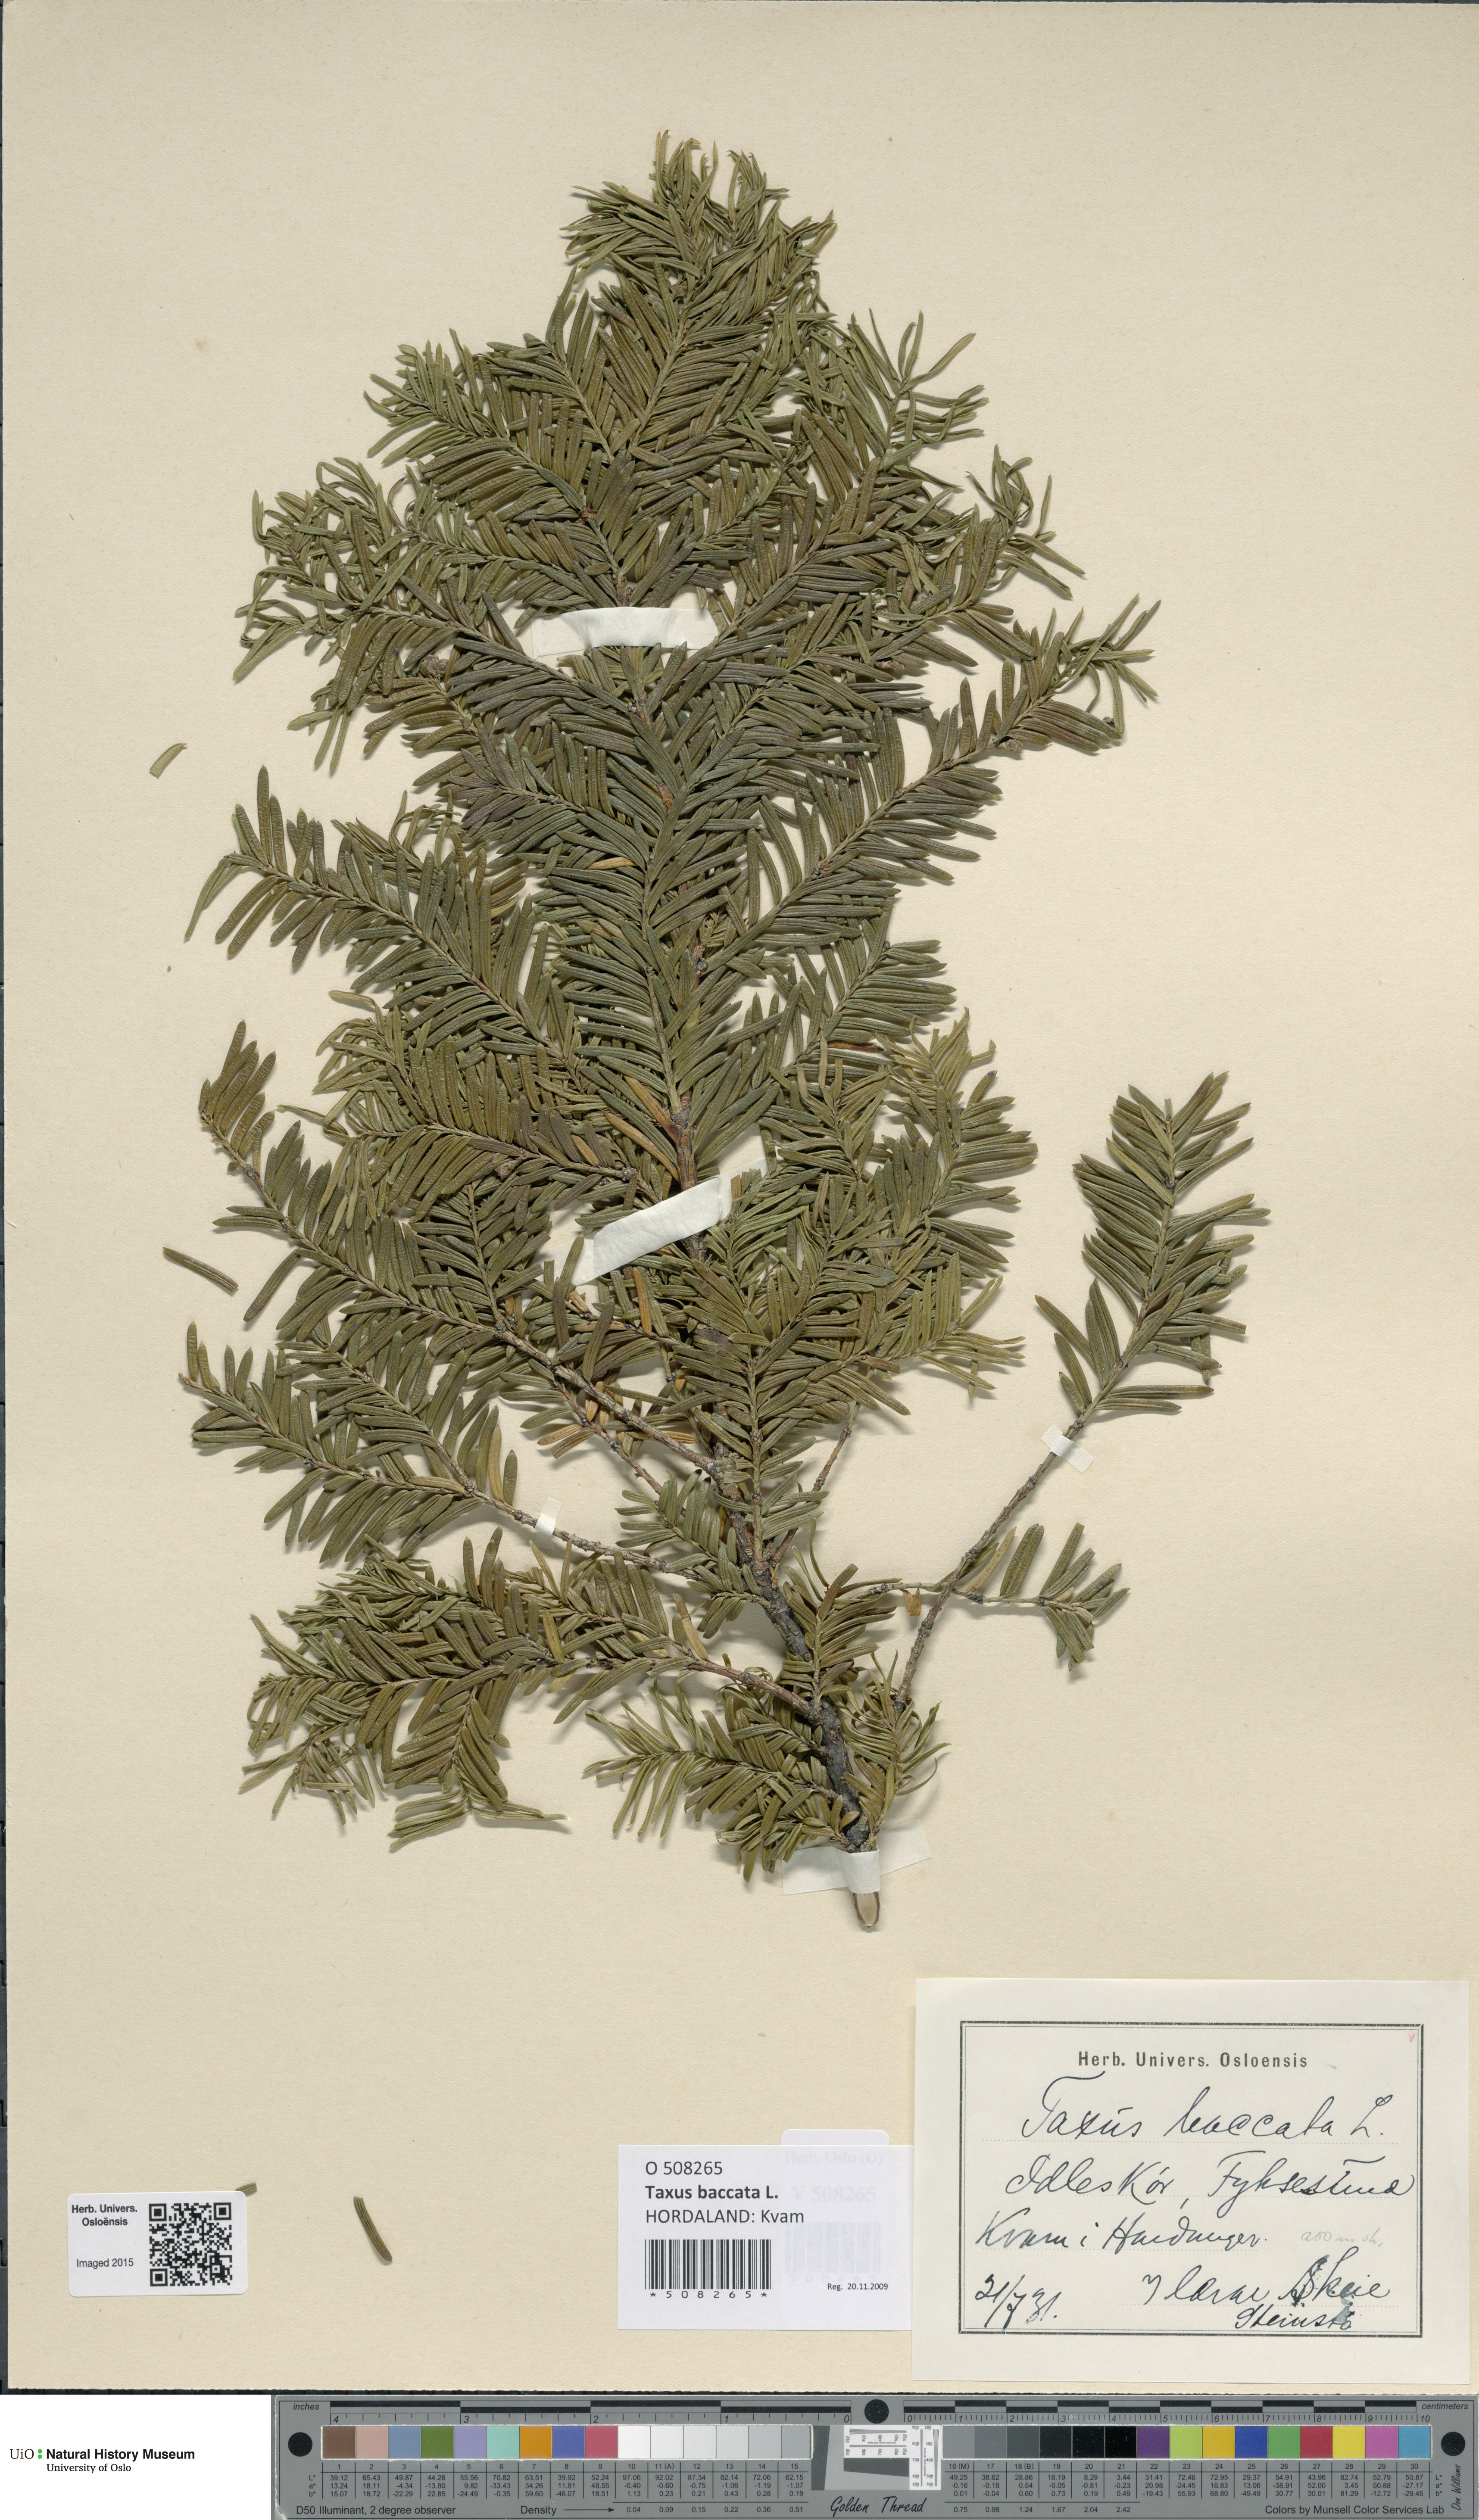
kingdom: Plantae
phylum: Tracheophyta
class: Pinopsida
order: Pinales
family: Taxaceae
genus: Taxus
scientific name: Taxus baccata
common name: Yew
